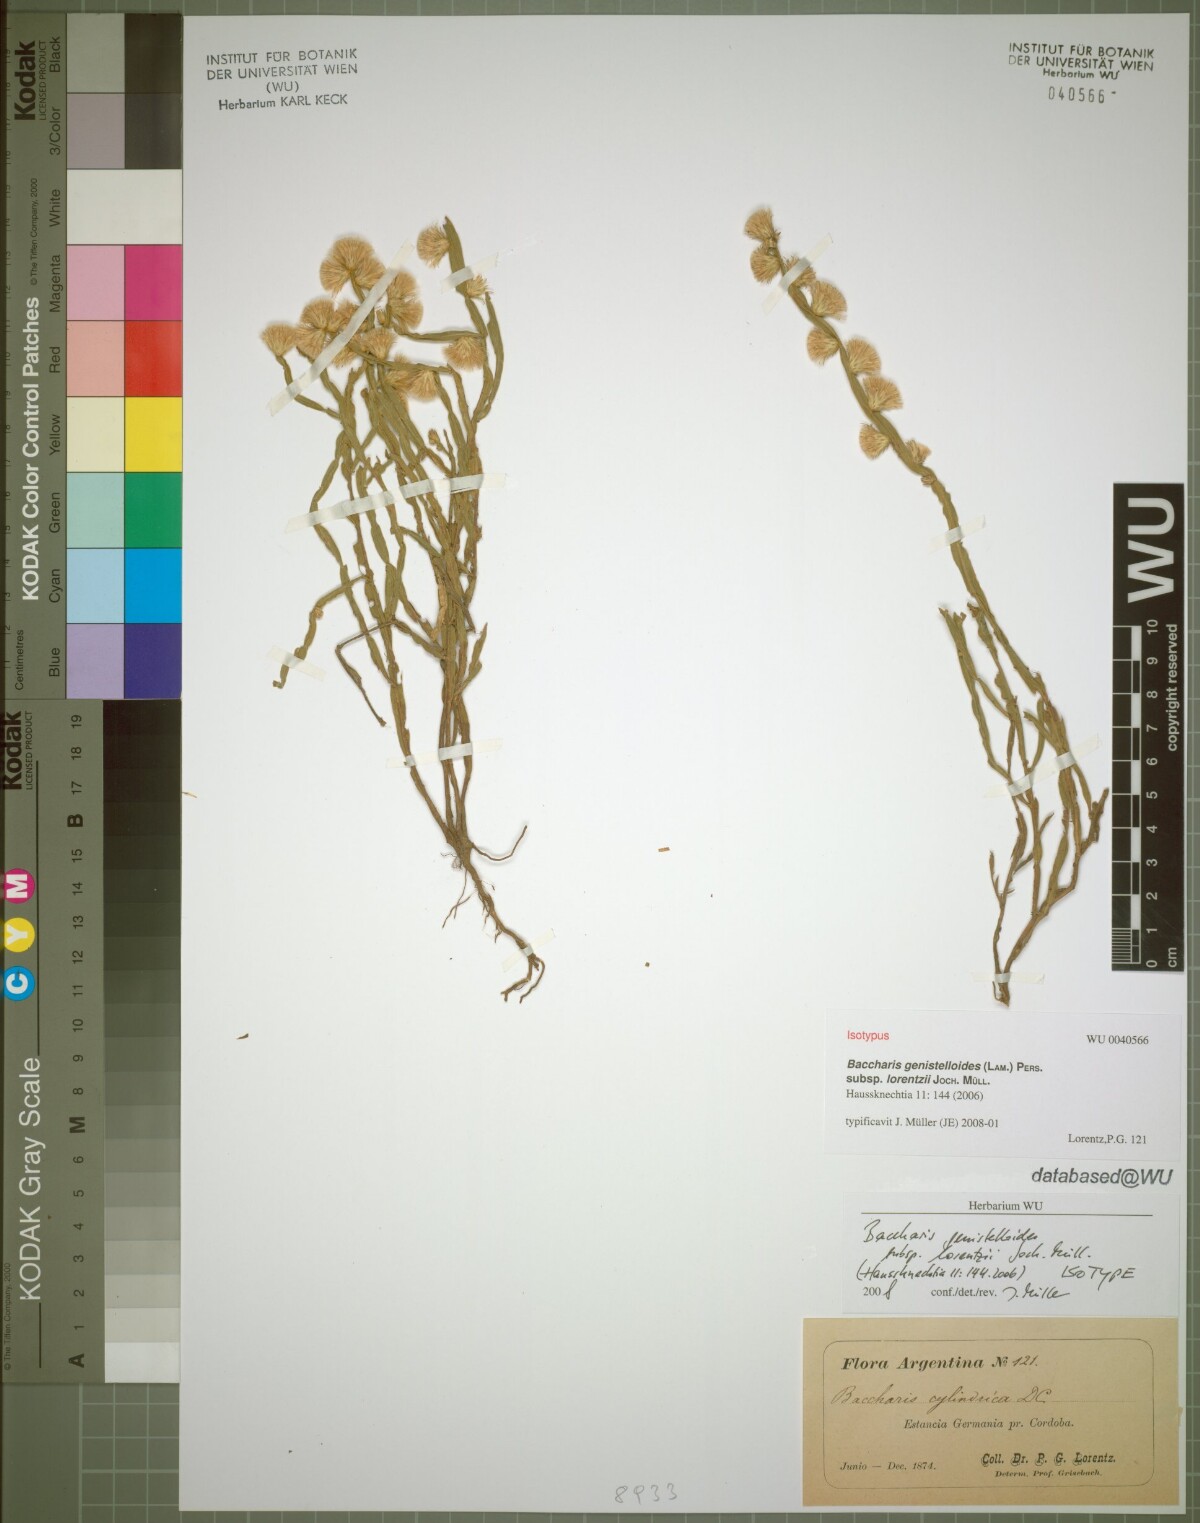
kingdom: Plantae
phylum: Tracheophyta
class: Magnoliopsida
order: Asterales
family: Asteraceae
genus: Baccharis
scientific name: Baccharis lorentzii
